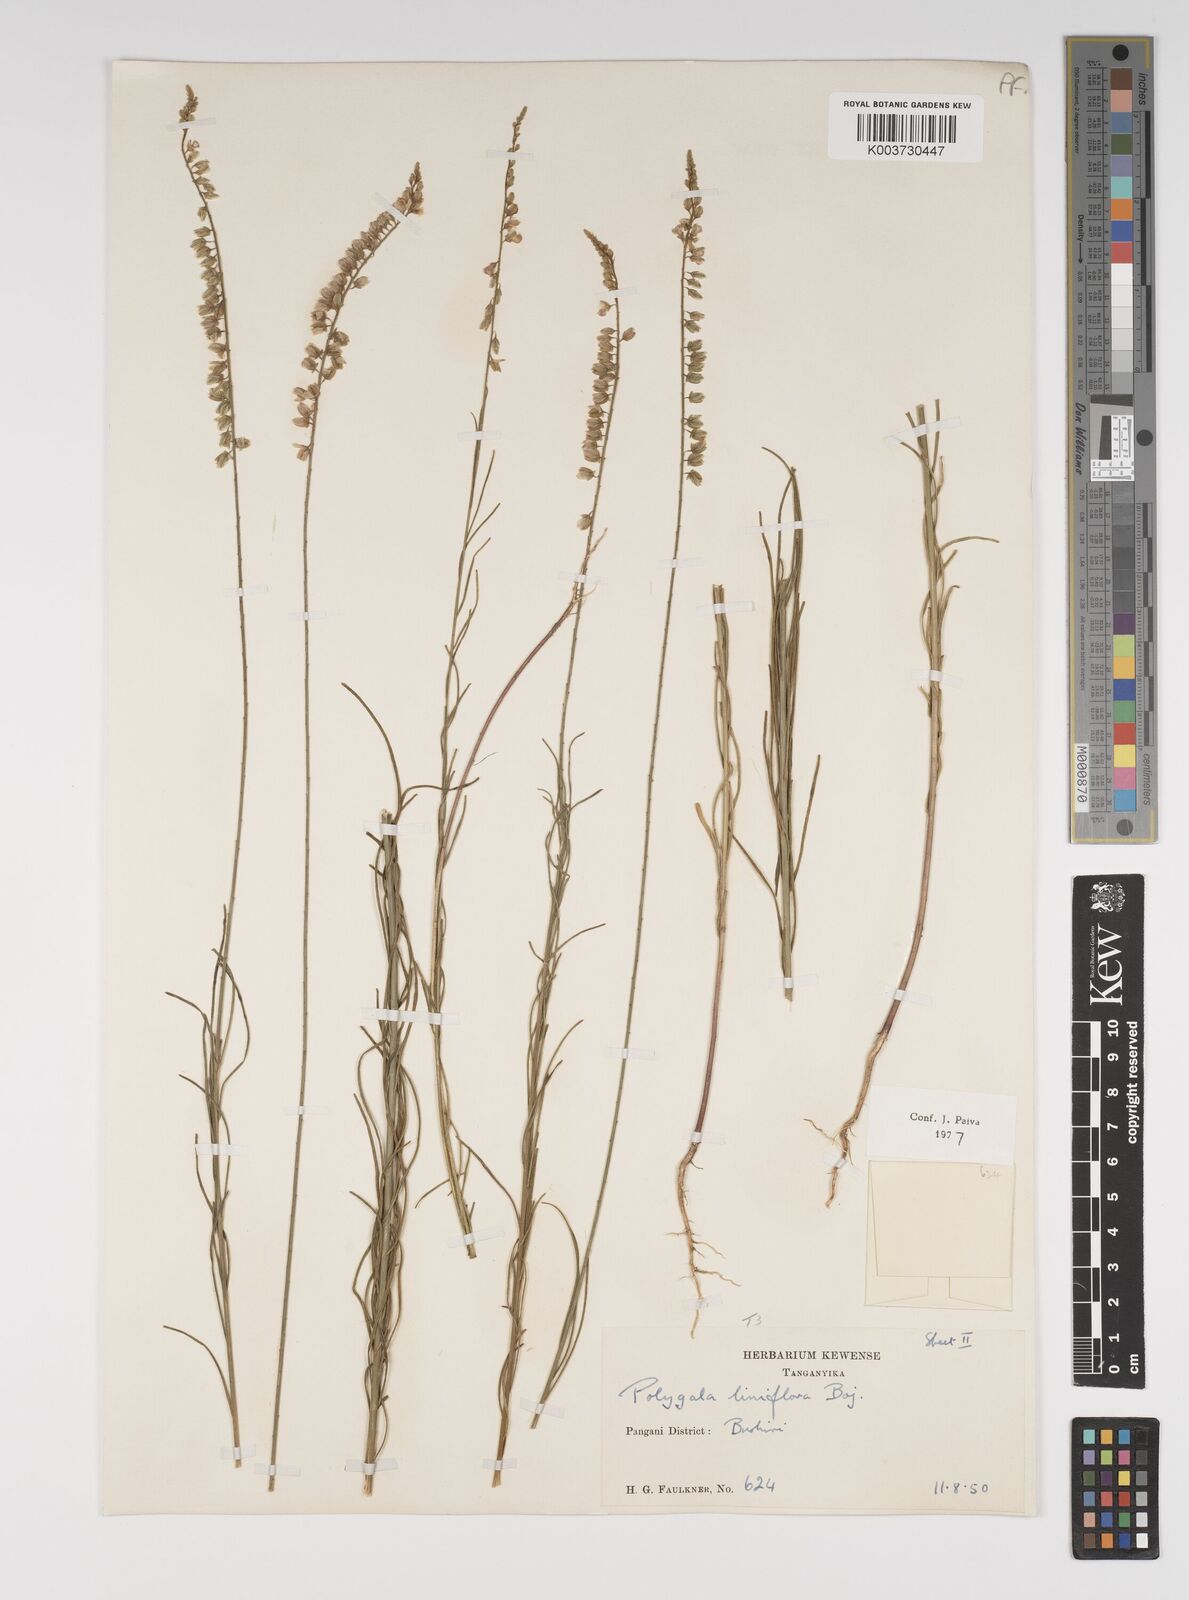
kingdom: Plantae
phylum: Tracheophyta
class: Magnoliopsida
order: Fabales
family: Polygalaceae
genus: Polygala
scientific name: Polygala conosperma
